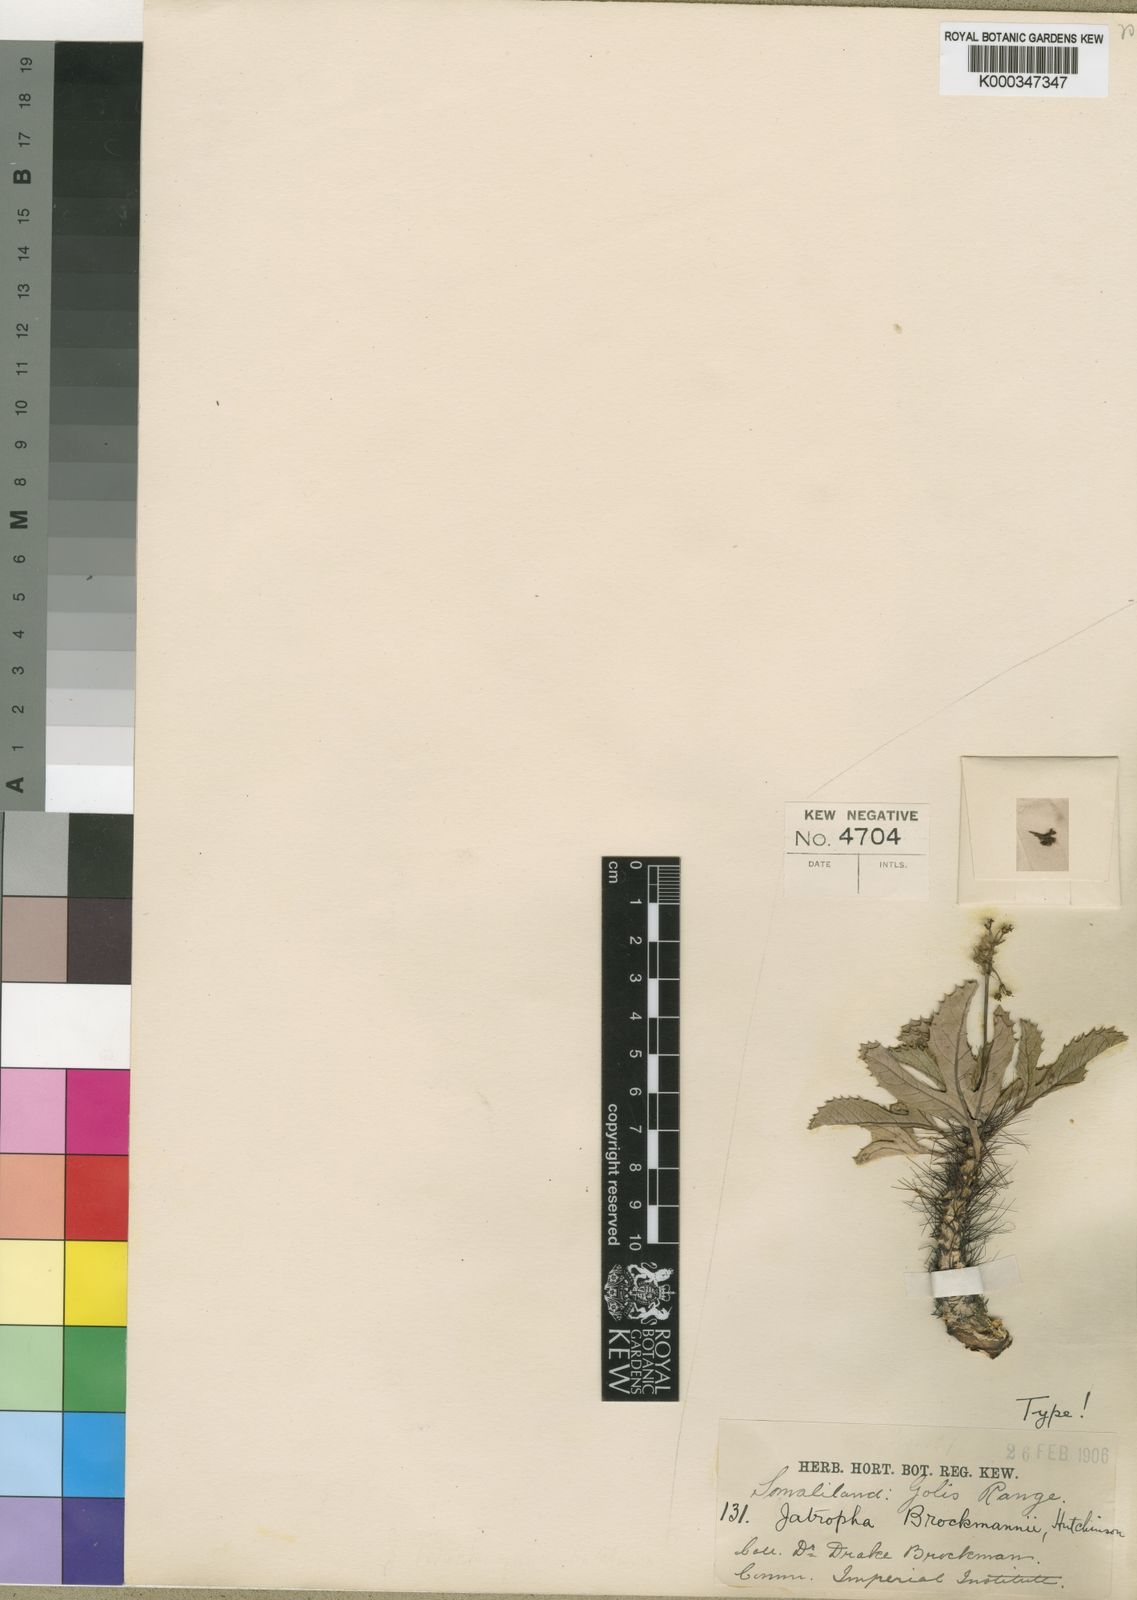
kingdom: Plantae
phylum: Tracheophyta
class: Magnoliopsida
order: Malpighiales
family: Euphorbiaceae
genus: Jatropha
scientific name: Jatropha brockmanii
